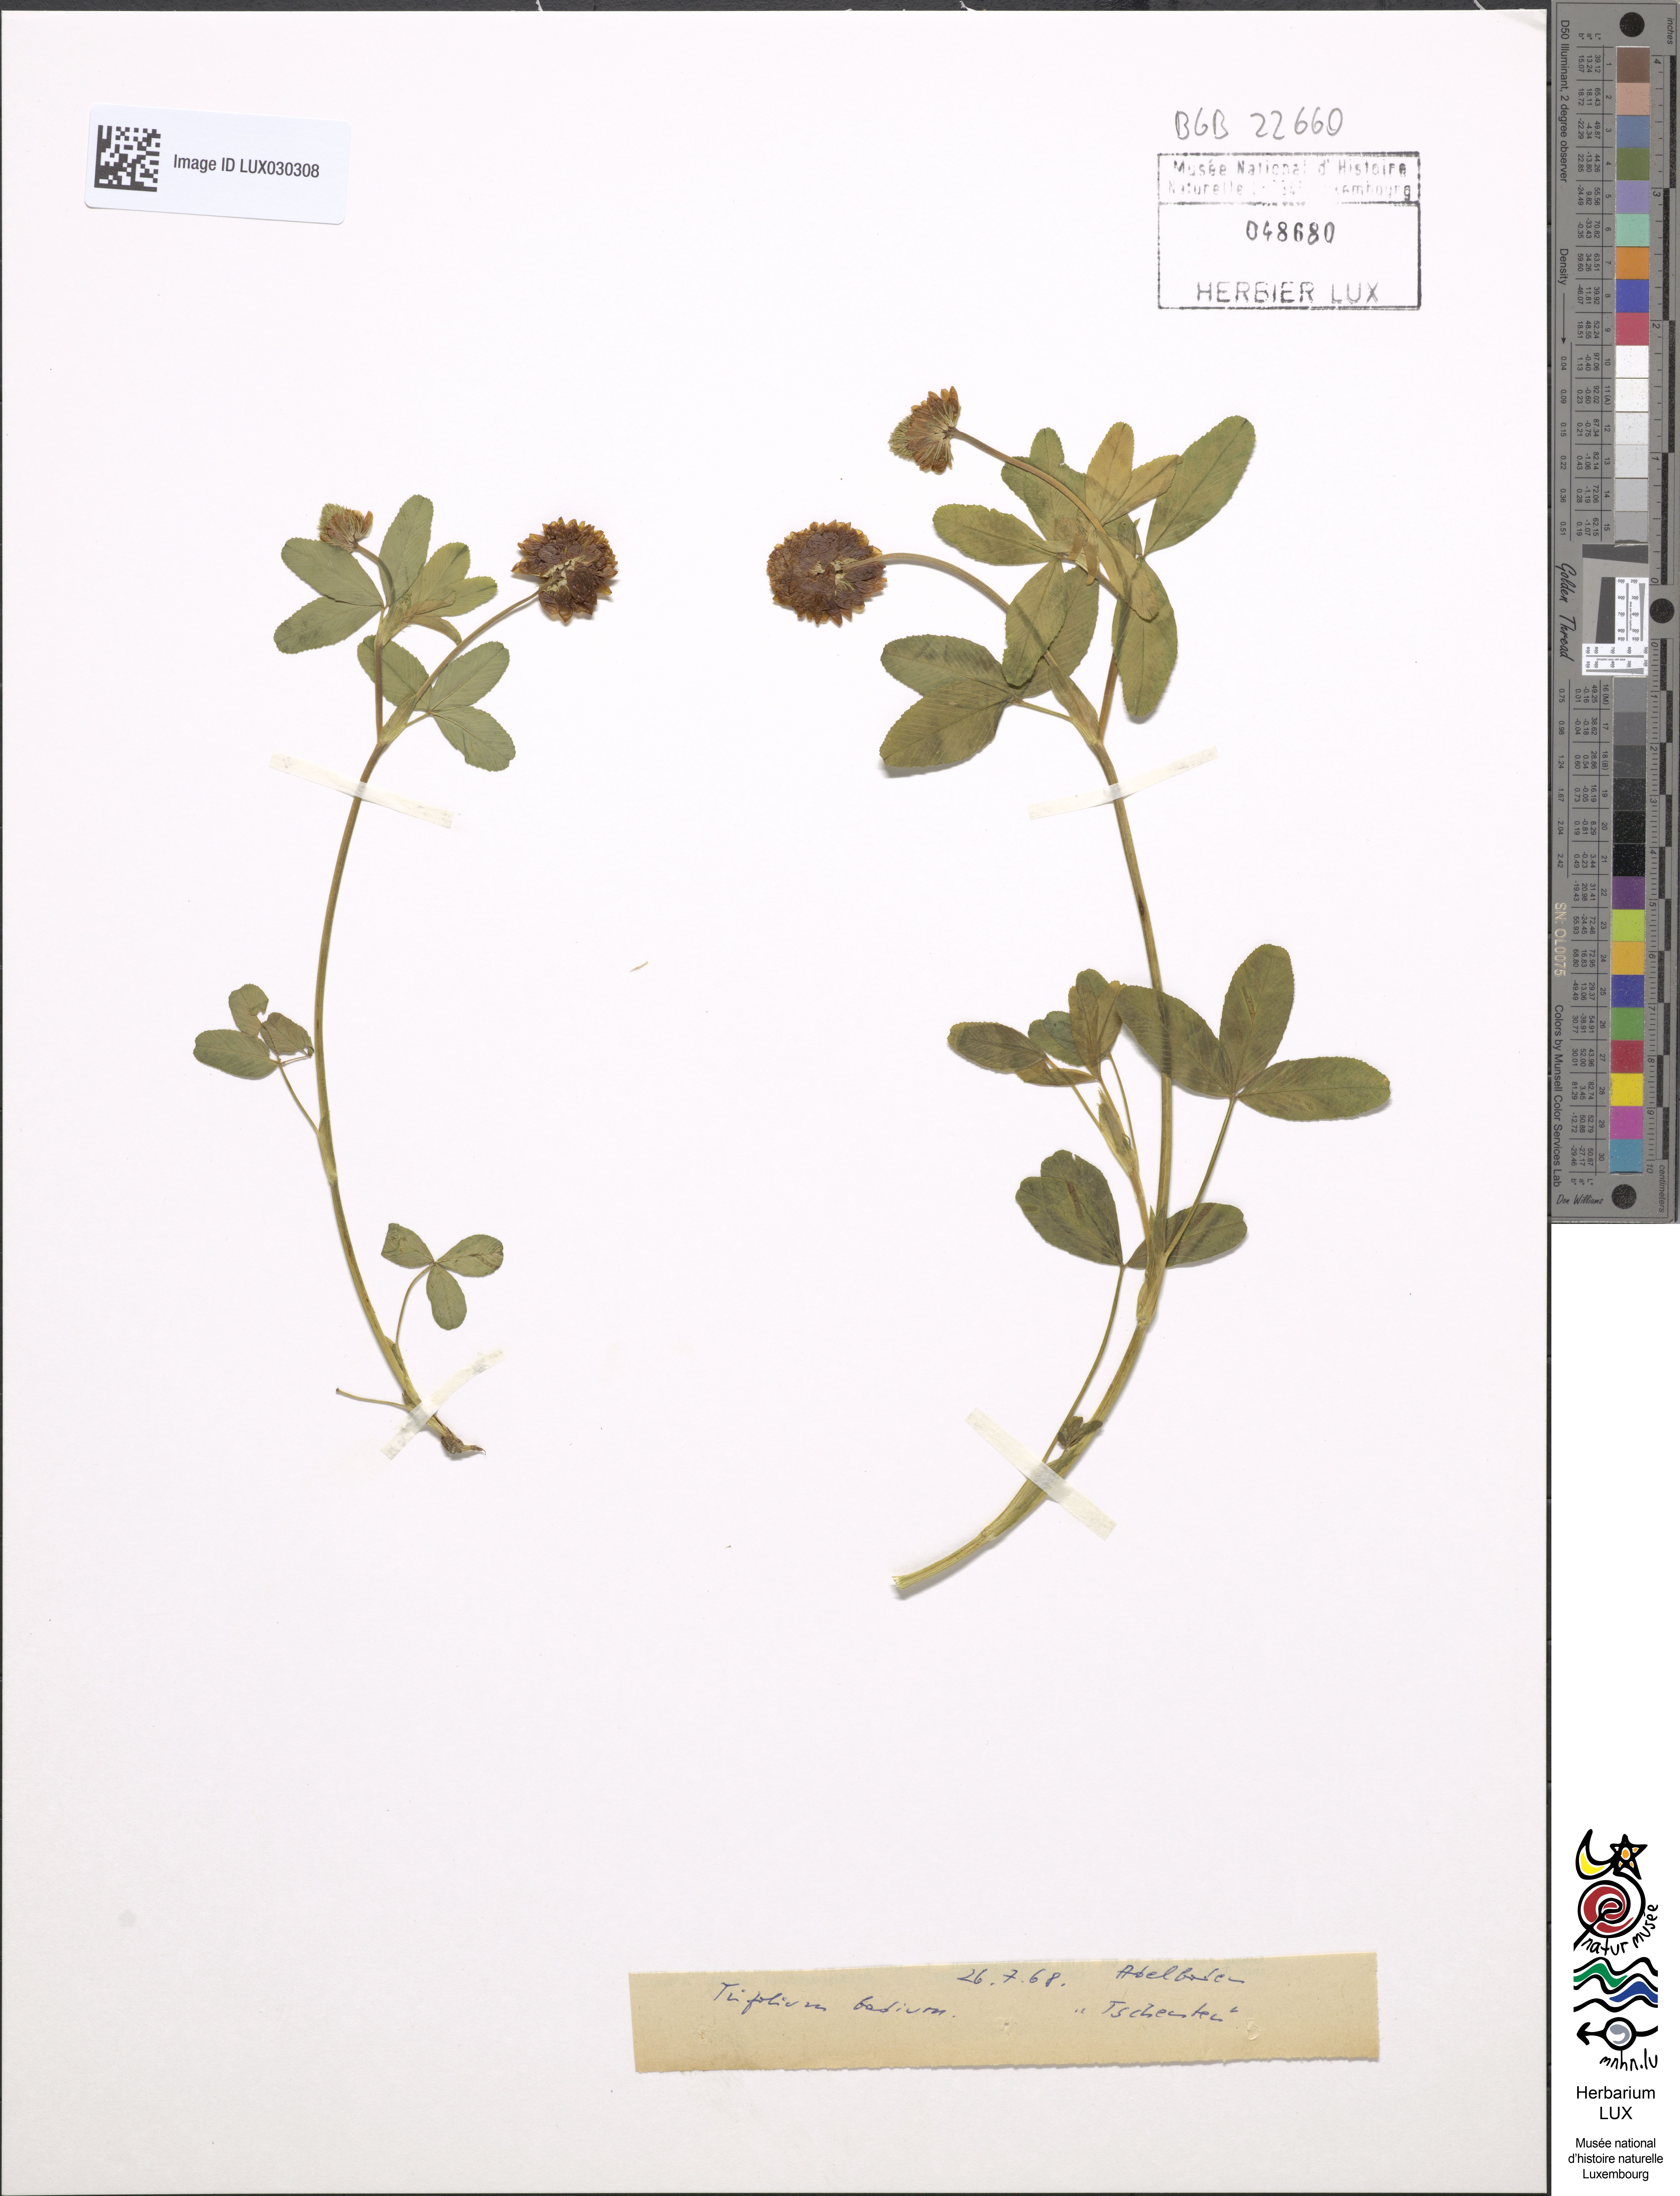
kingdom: Plantae
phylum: Tracheophyta
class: Magnoliopsida
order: Fabales
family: Fabaceae
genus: Trifolium
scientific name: Trifolium badium
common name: Brown clover
